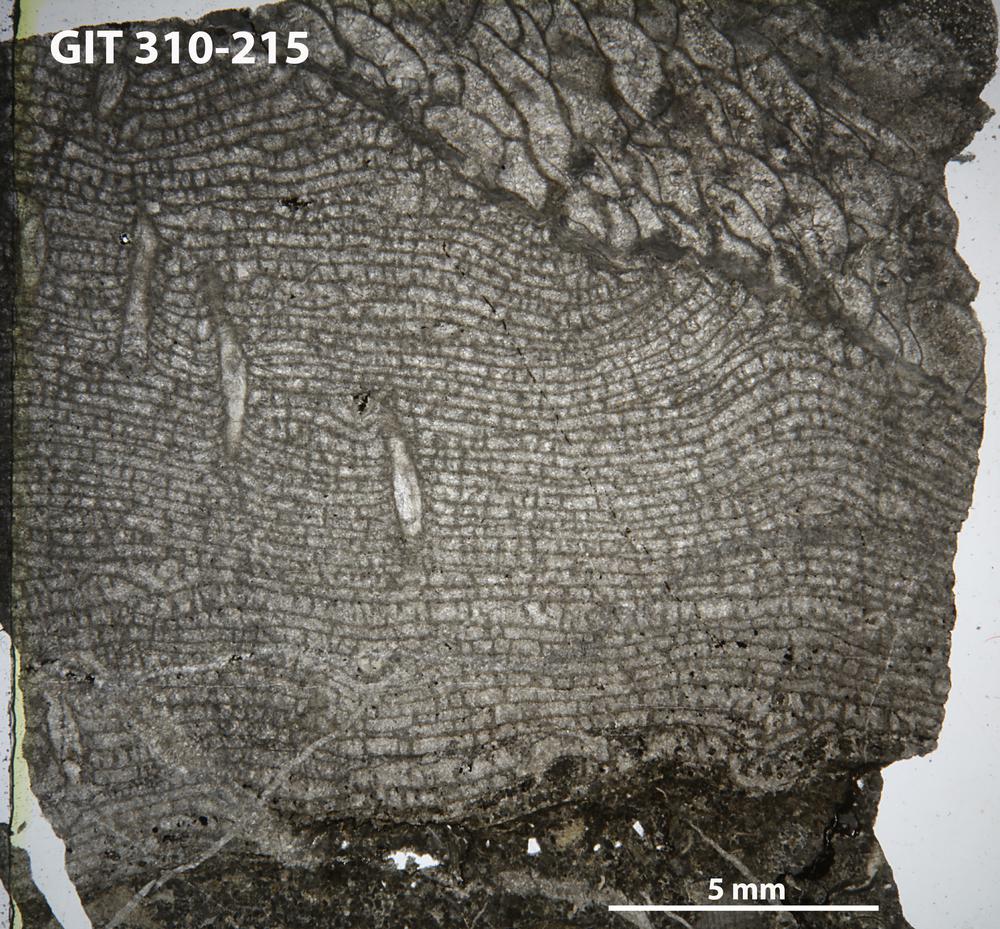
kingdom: Animalia
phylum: Porifera
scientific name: Porifera
